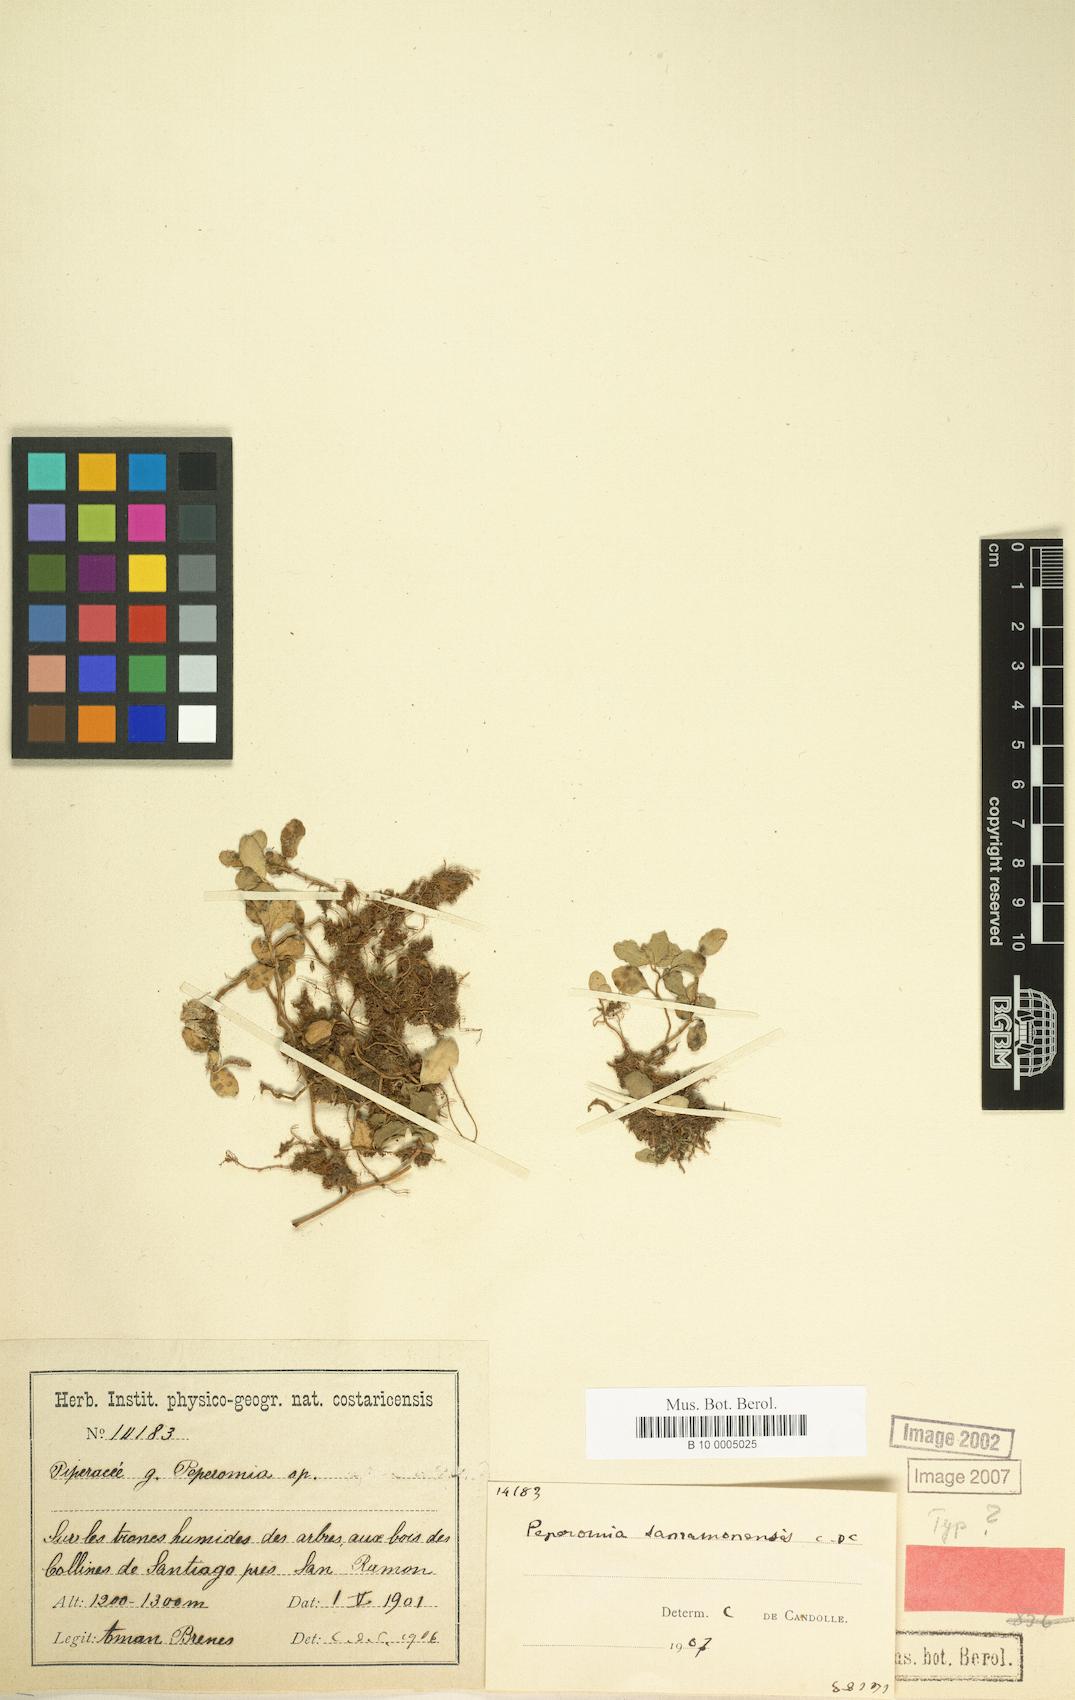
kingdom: Plantae
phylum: Tracheophyta
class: Magnoliopsida
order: Piperales
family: Piperaceae
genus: Peperomia
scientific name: Peperomia silvivaga
